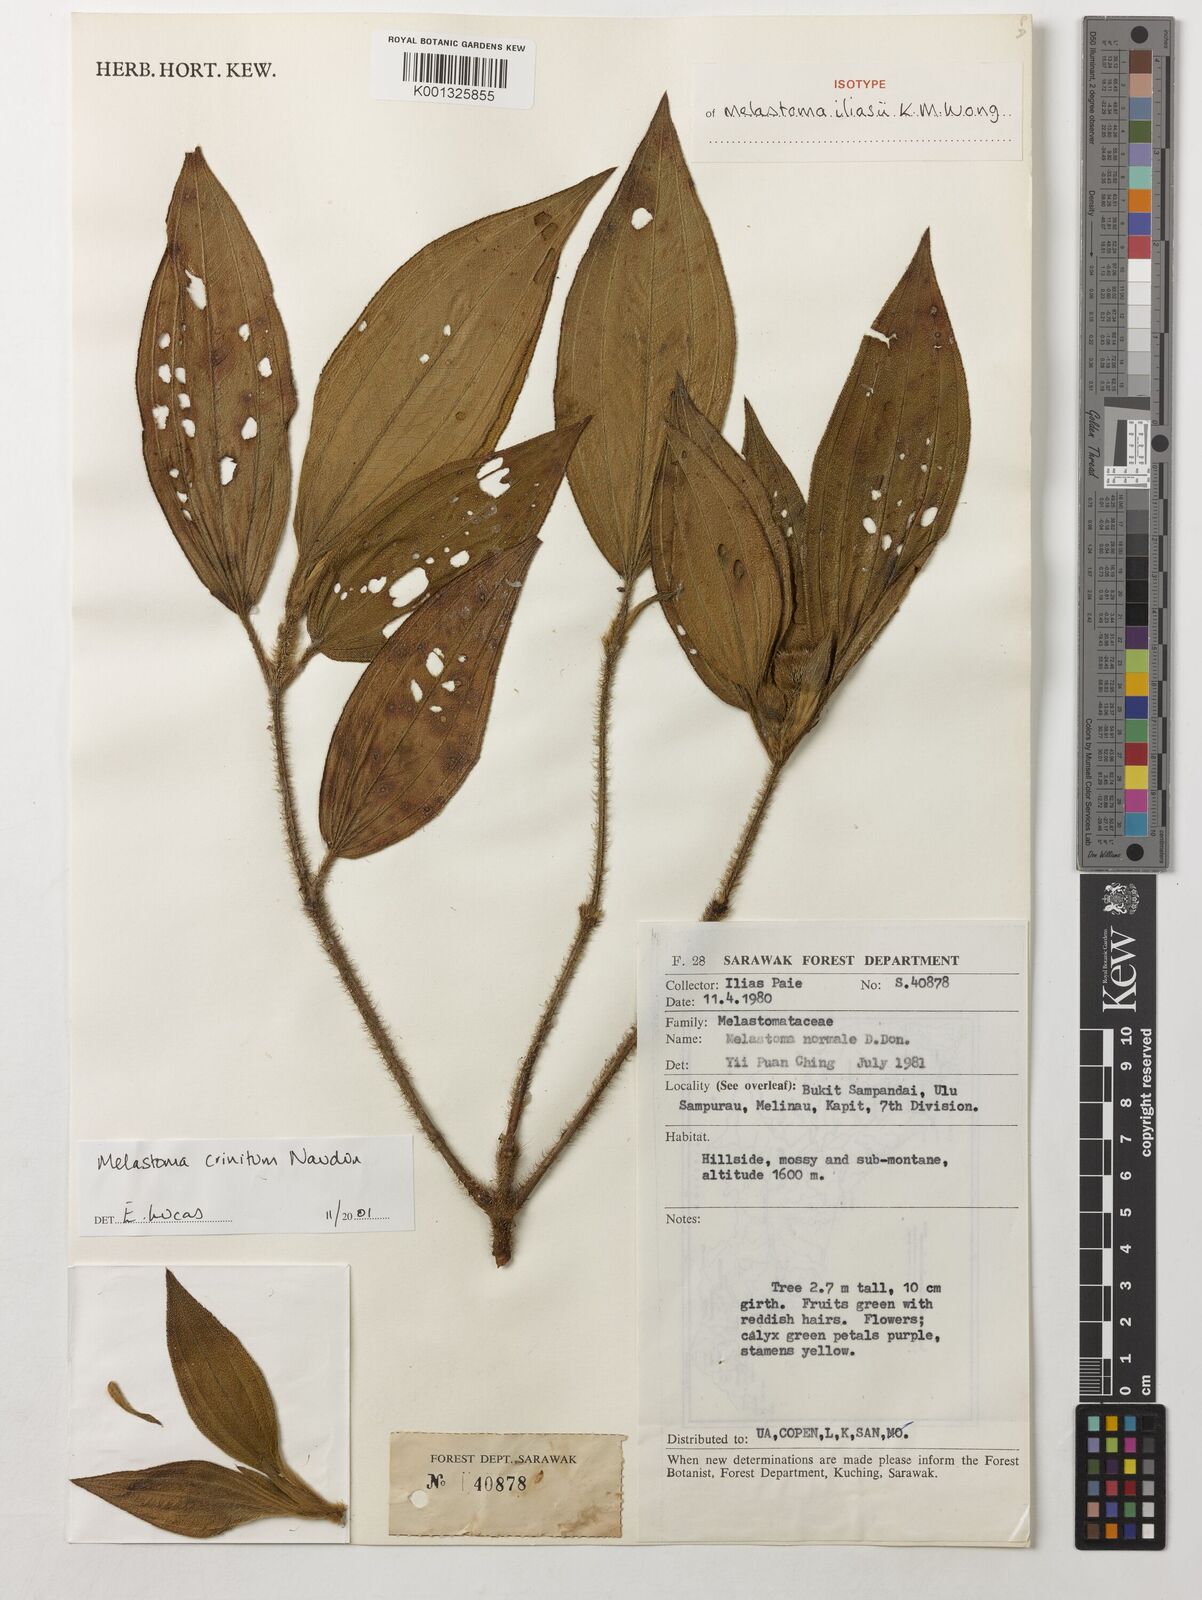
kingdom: Plantae
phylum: Tracheophyta
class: Magnoliopsida
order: Myrtales
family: Melastomataceae
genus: Melastoma
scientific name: Melastoma iliasii
